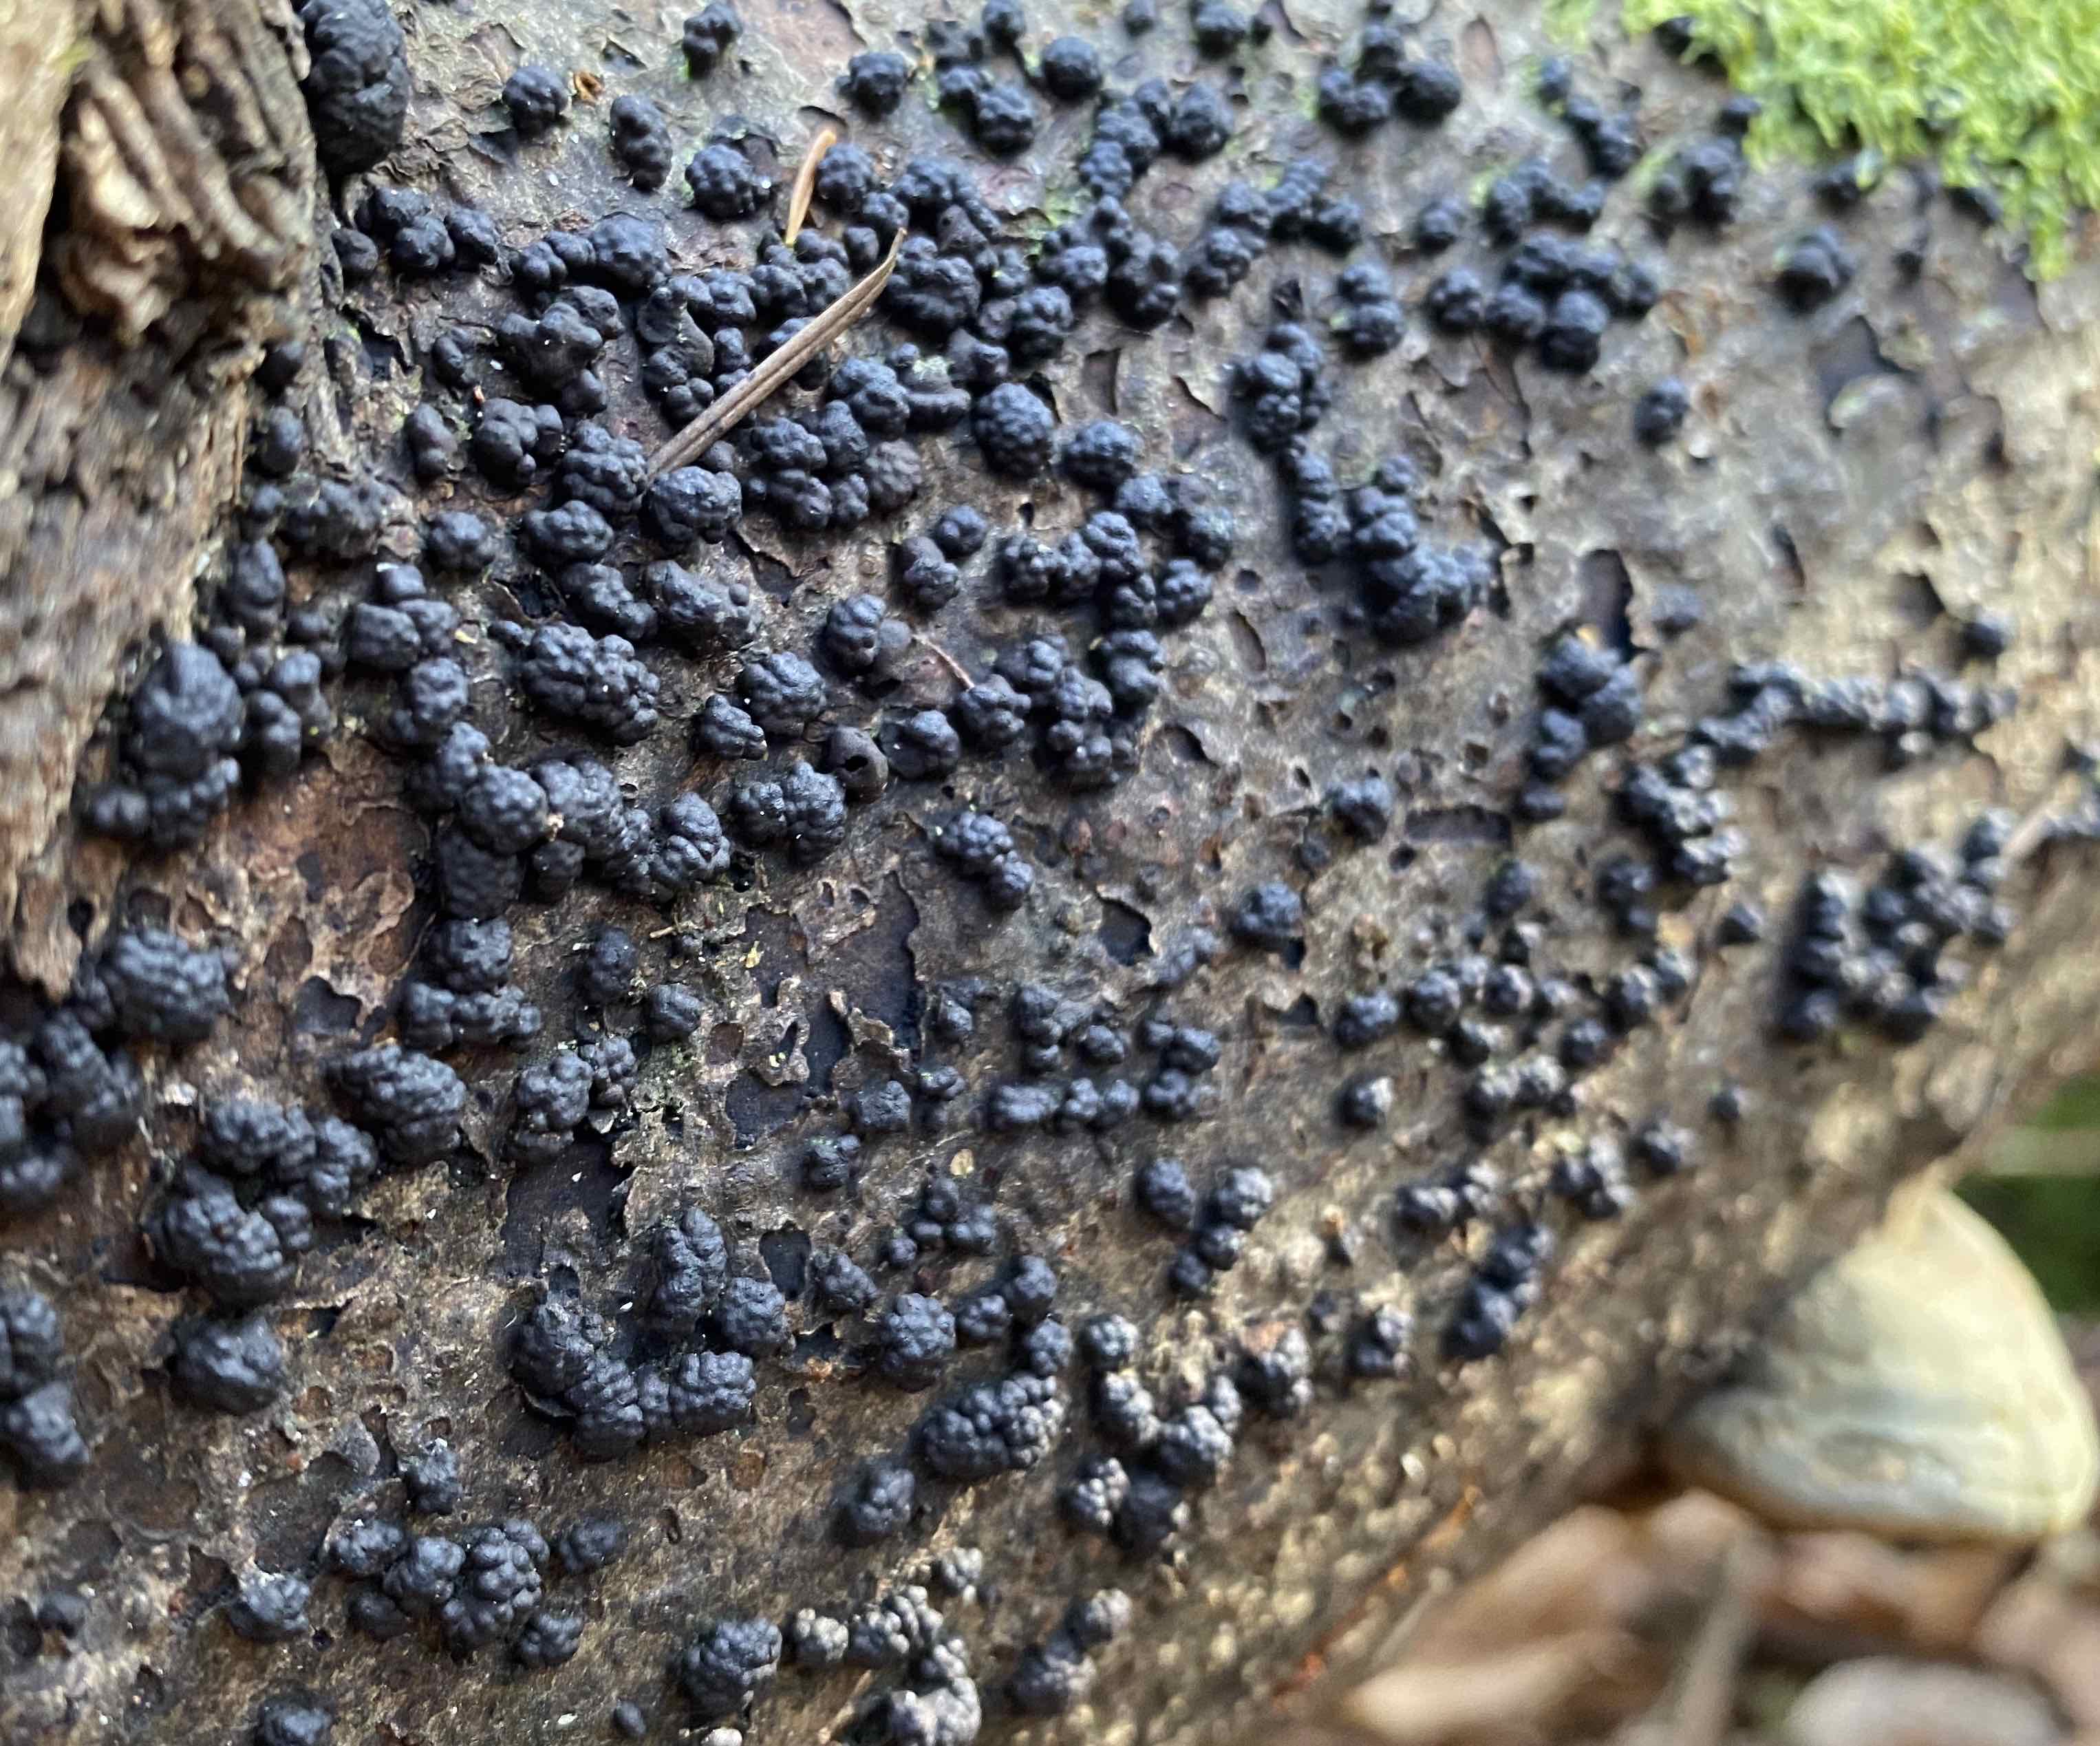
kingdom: Fungi
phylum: Ascomycota
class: Sordariomycetes
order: Xylariales
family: Hypoxylaceae
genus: Jackrogersella
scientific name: Jackrogersella cohaerens
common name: sammenflydende kulbær
